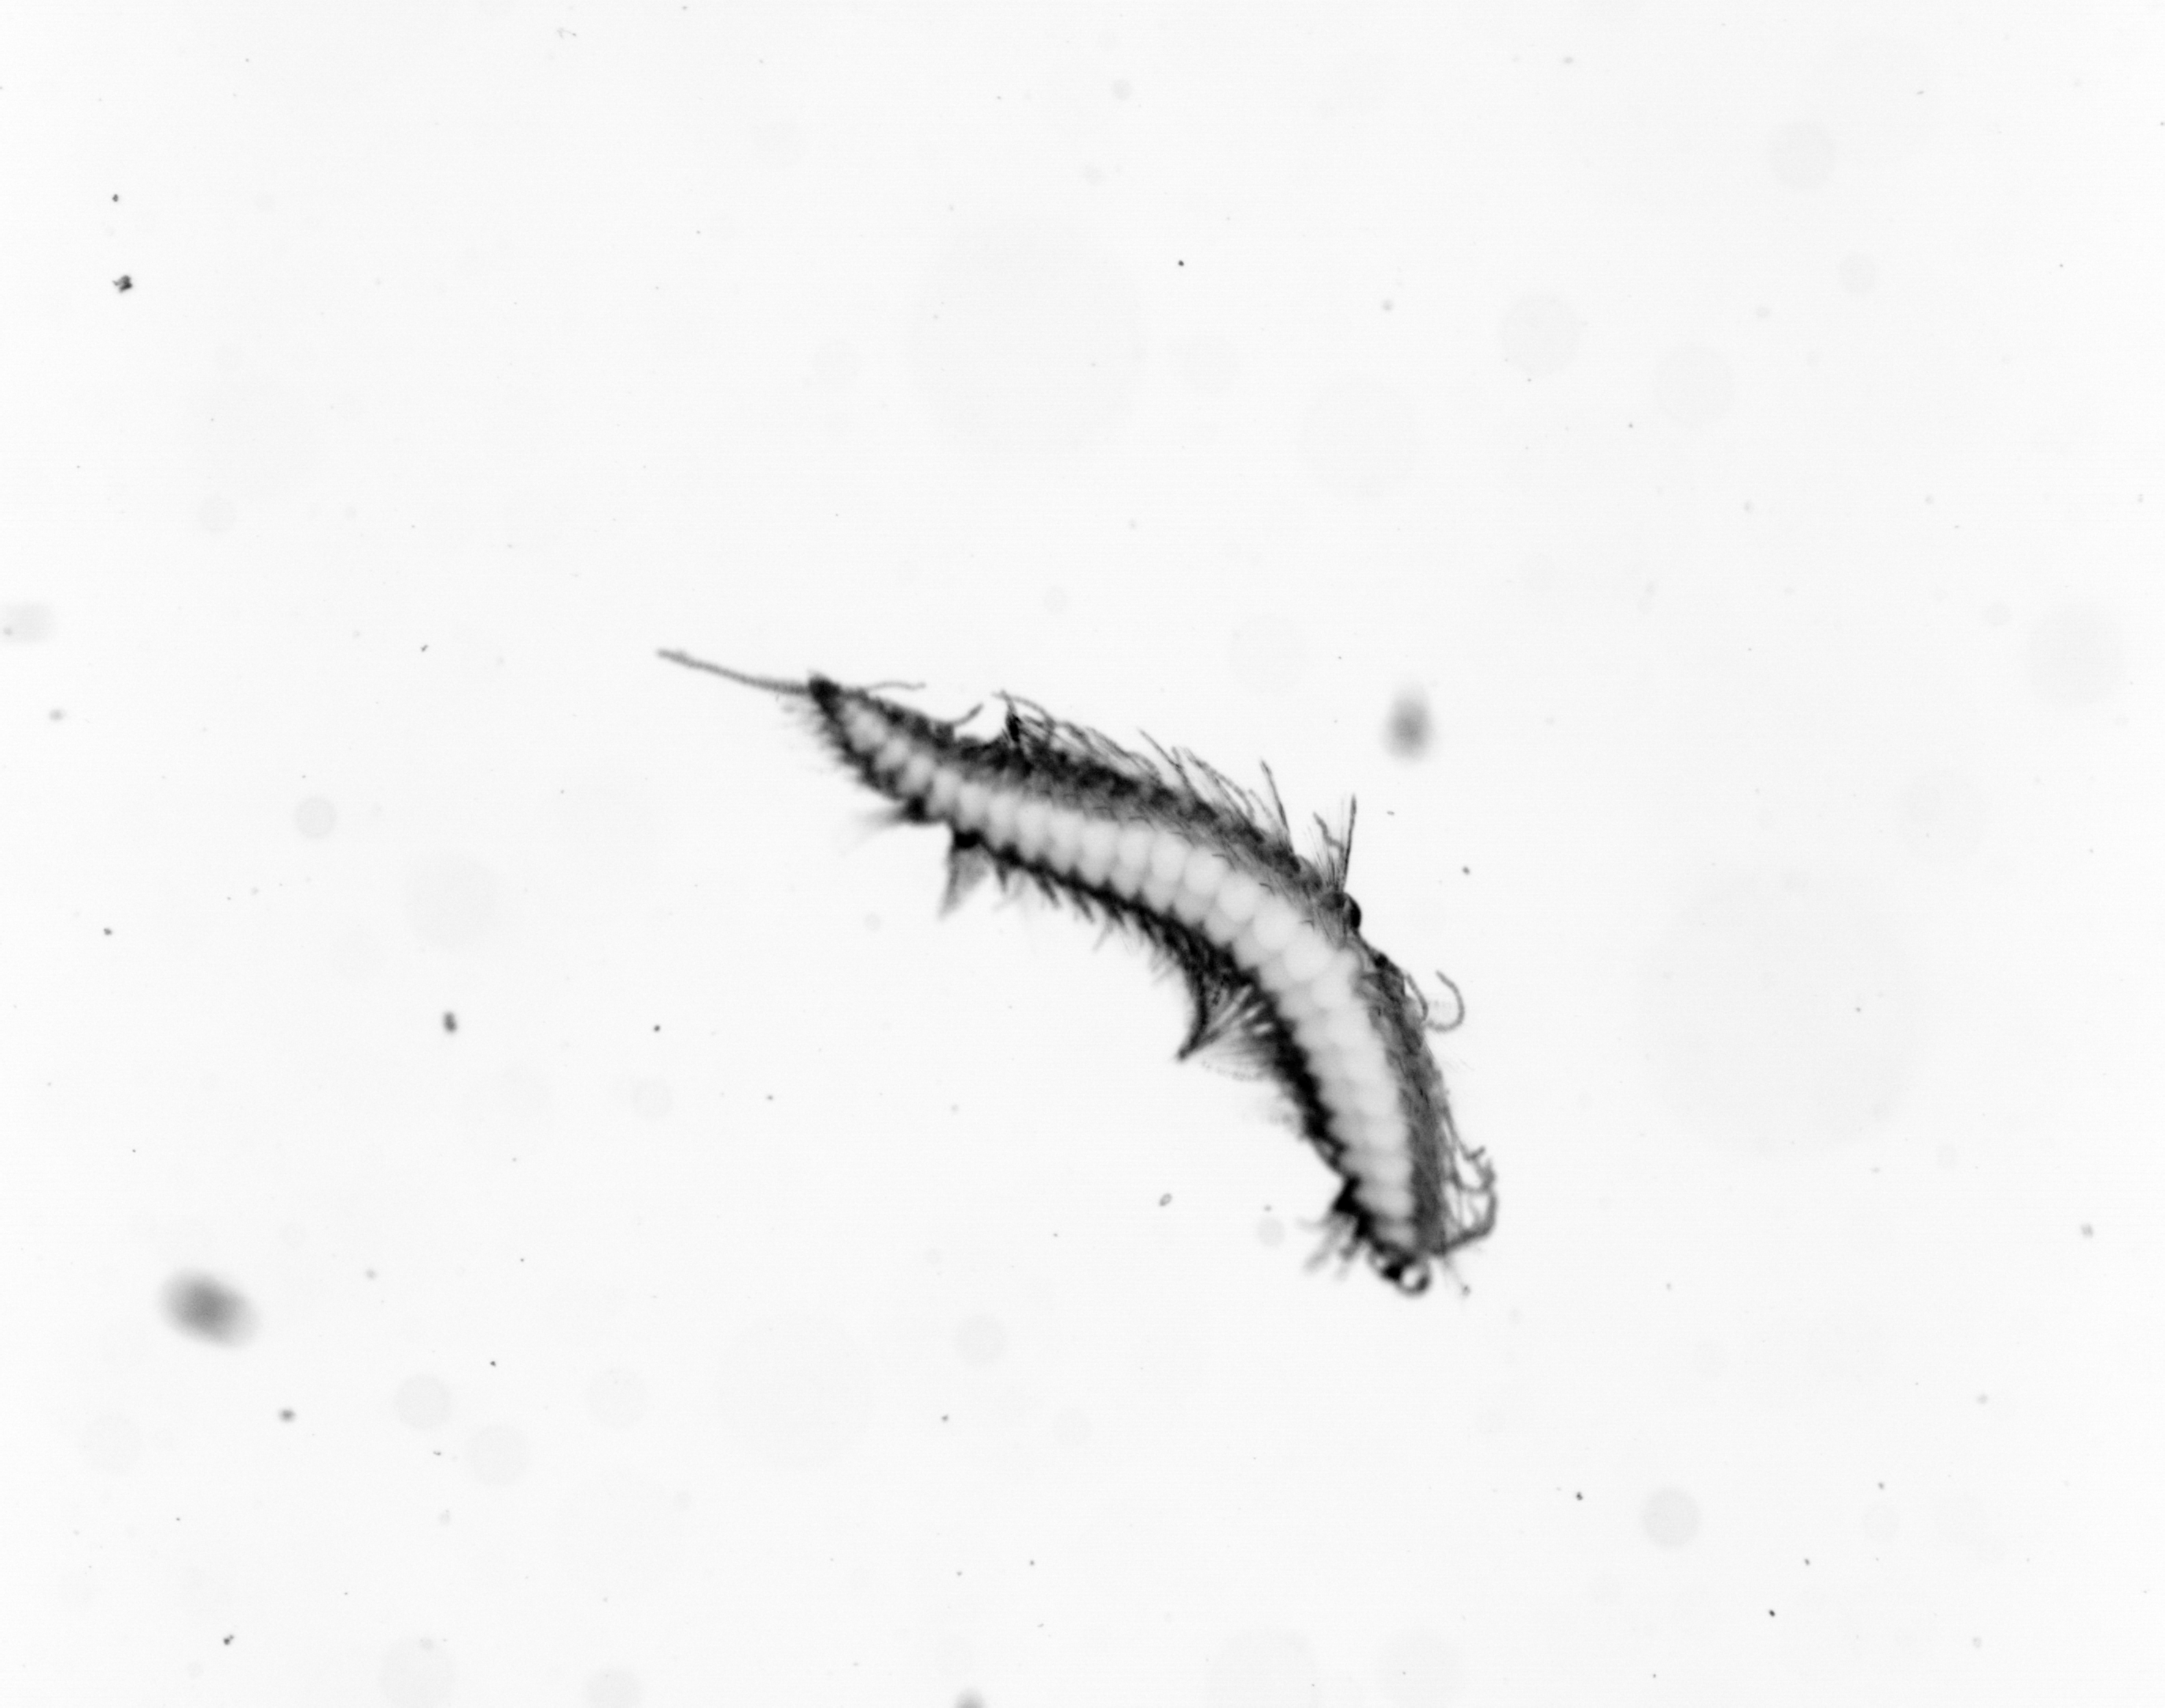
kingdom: Animalia
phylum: Annelida
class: Polychaeta
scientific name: Polychaeta
